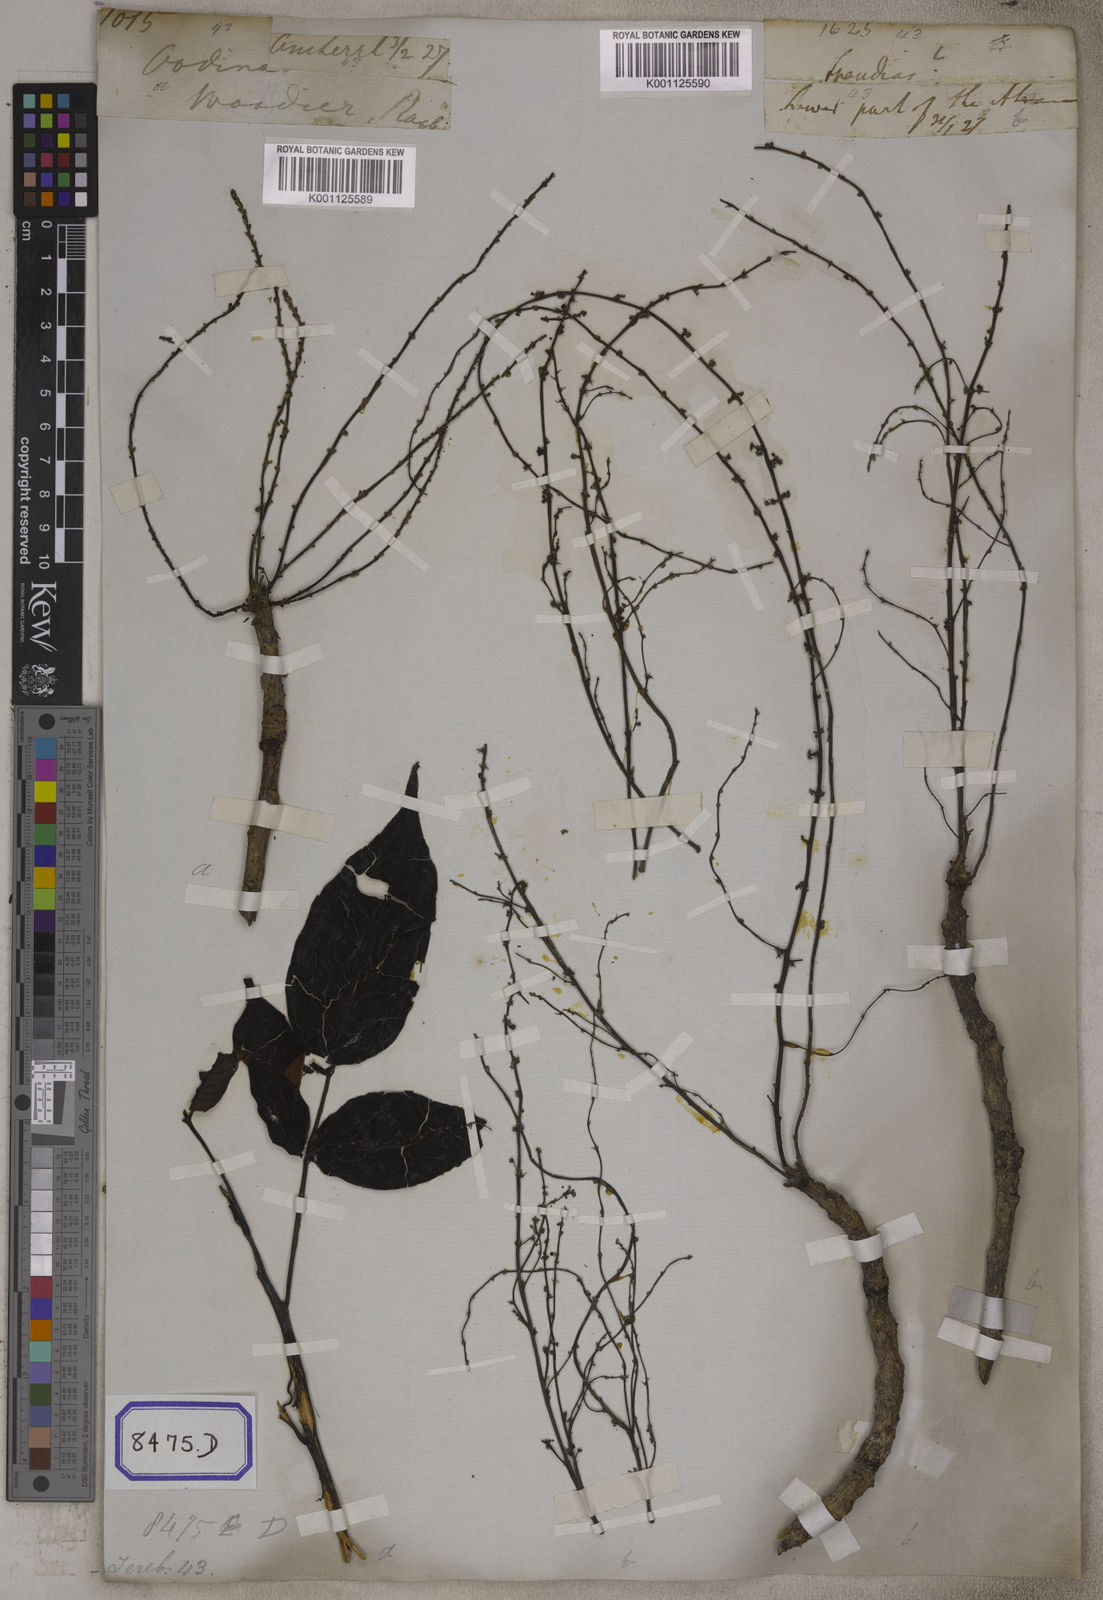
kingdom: Plantae
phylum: Tracheophyta
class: Magnoliopsida
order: Sapindales
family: Anacardiaceae
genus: Lannea
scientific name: Lannea coromandelica
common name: Indian ash tree
